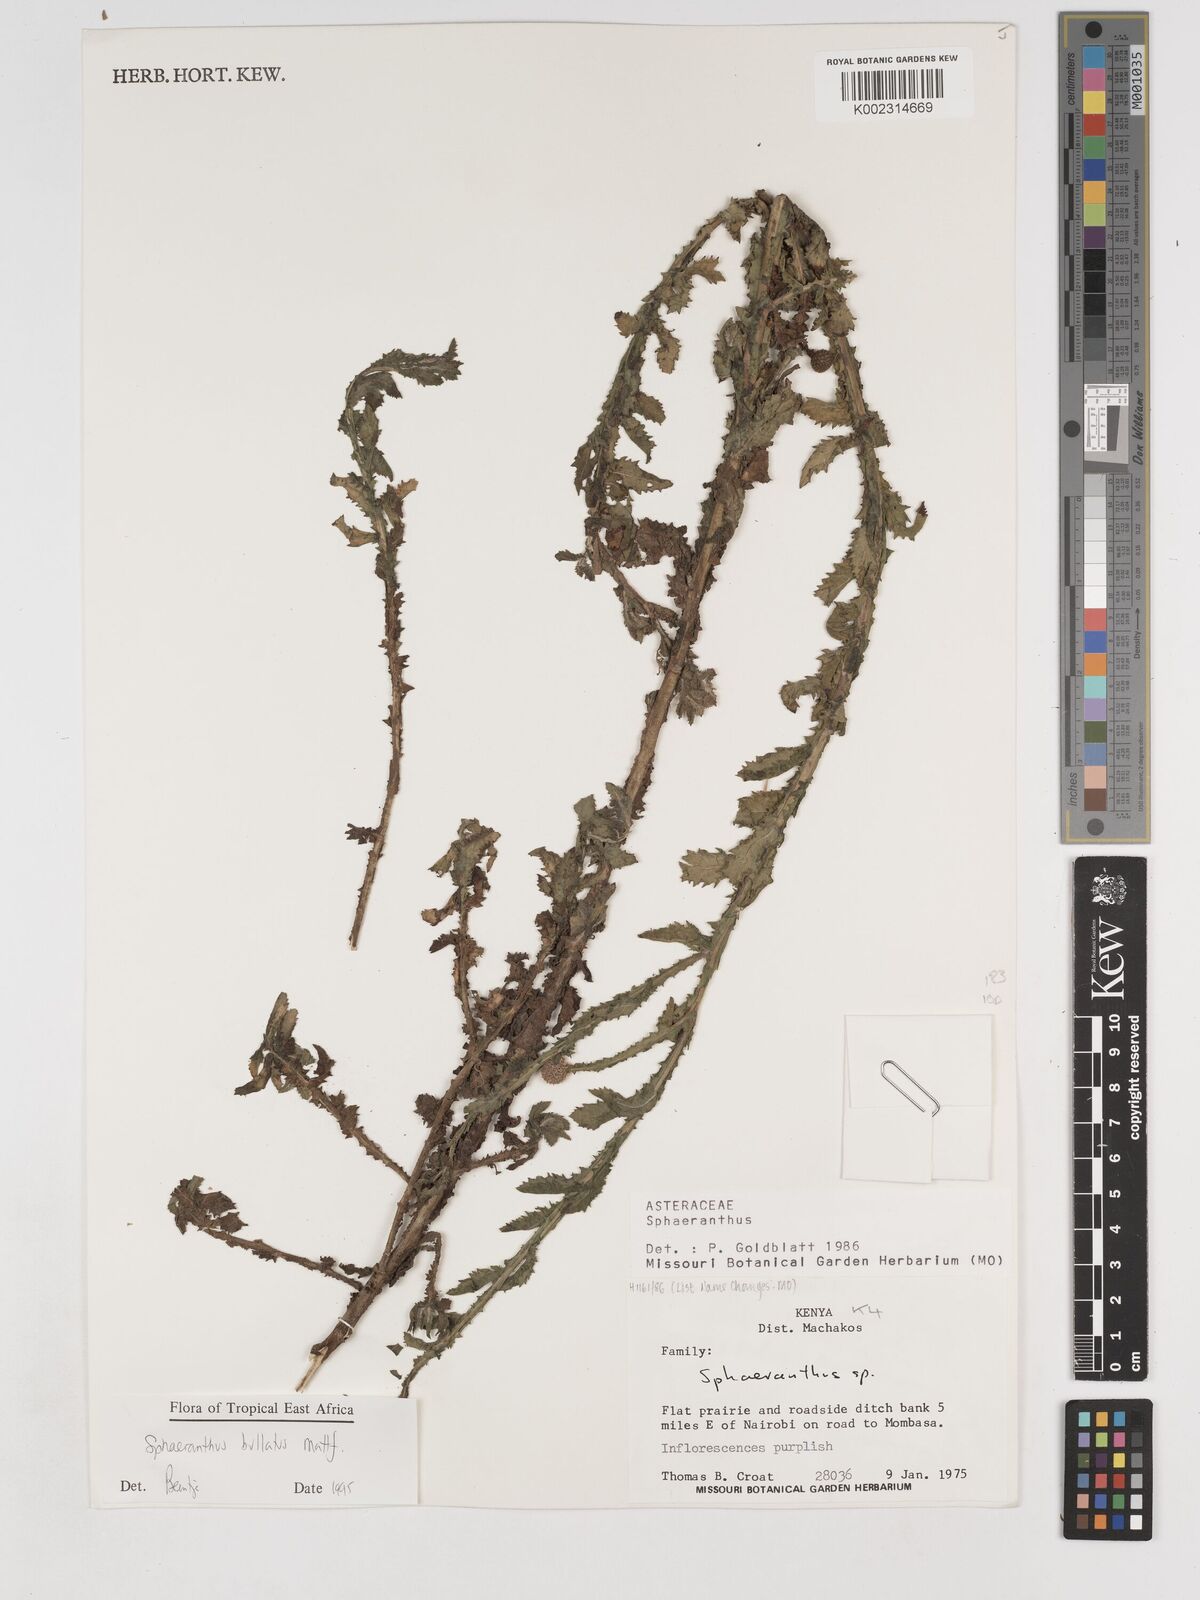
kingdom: Plantae
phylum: Tracheophyta
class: Magnoliopsida
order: Asterales
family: Asteraceae
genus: Sphaeranthus
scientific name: Sphaeranthus bullatus
